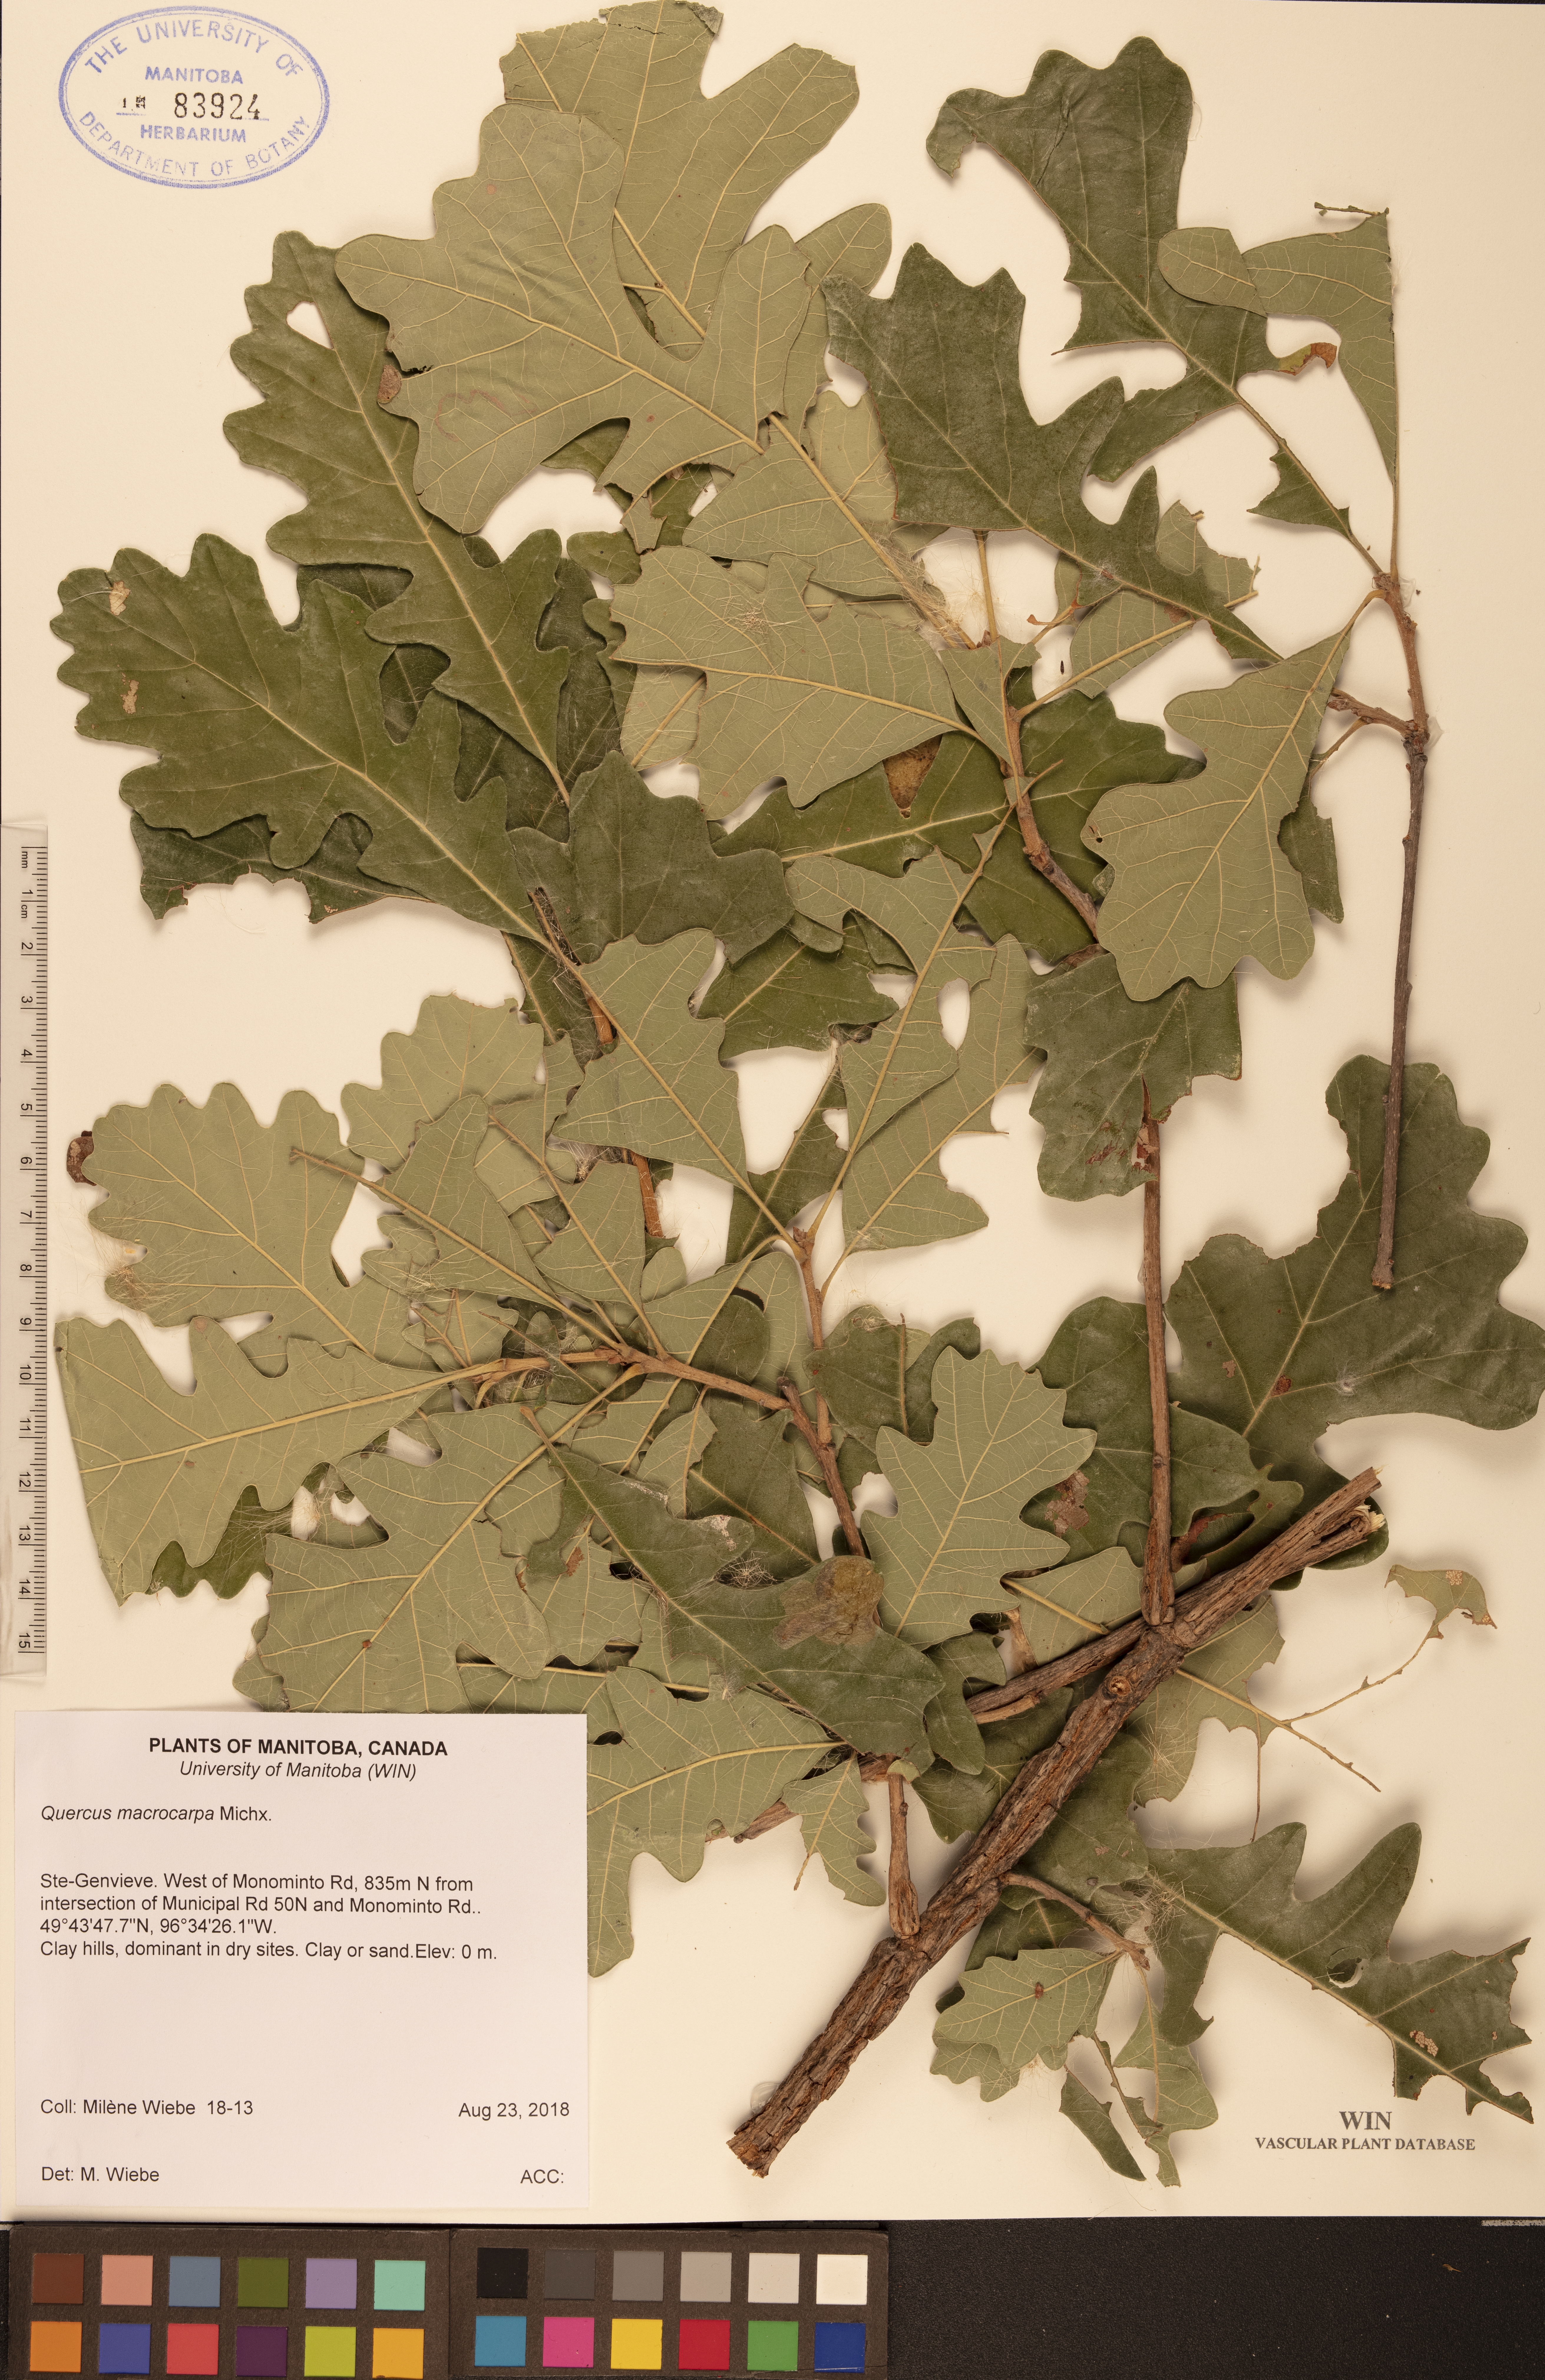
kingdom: Plantae
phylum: Tracheophyta
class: Magnoliopsida
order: Fagales
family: Fagaceae
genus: Quercus
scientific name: Quercus macrocarpa
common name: Bur oak
